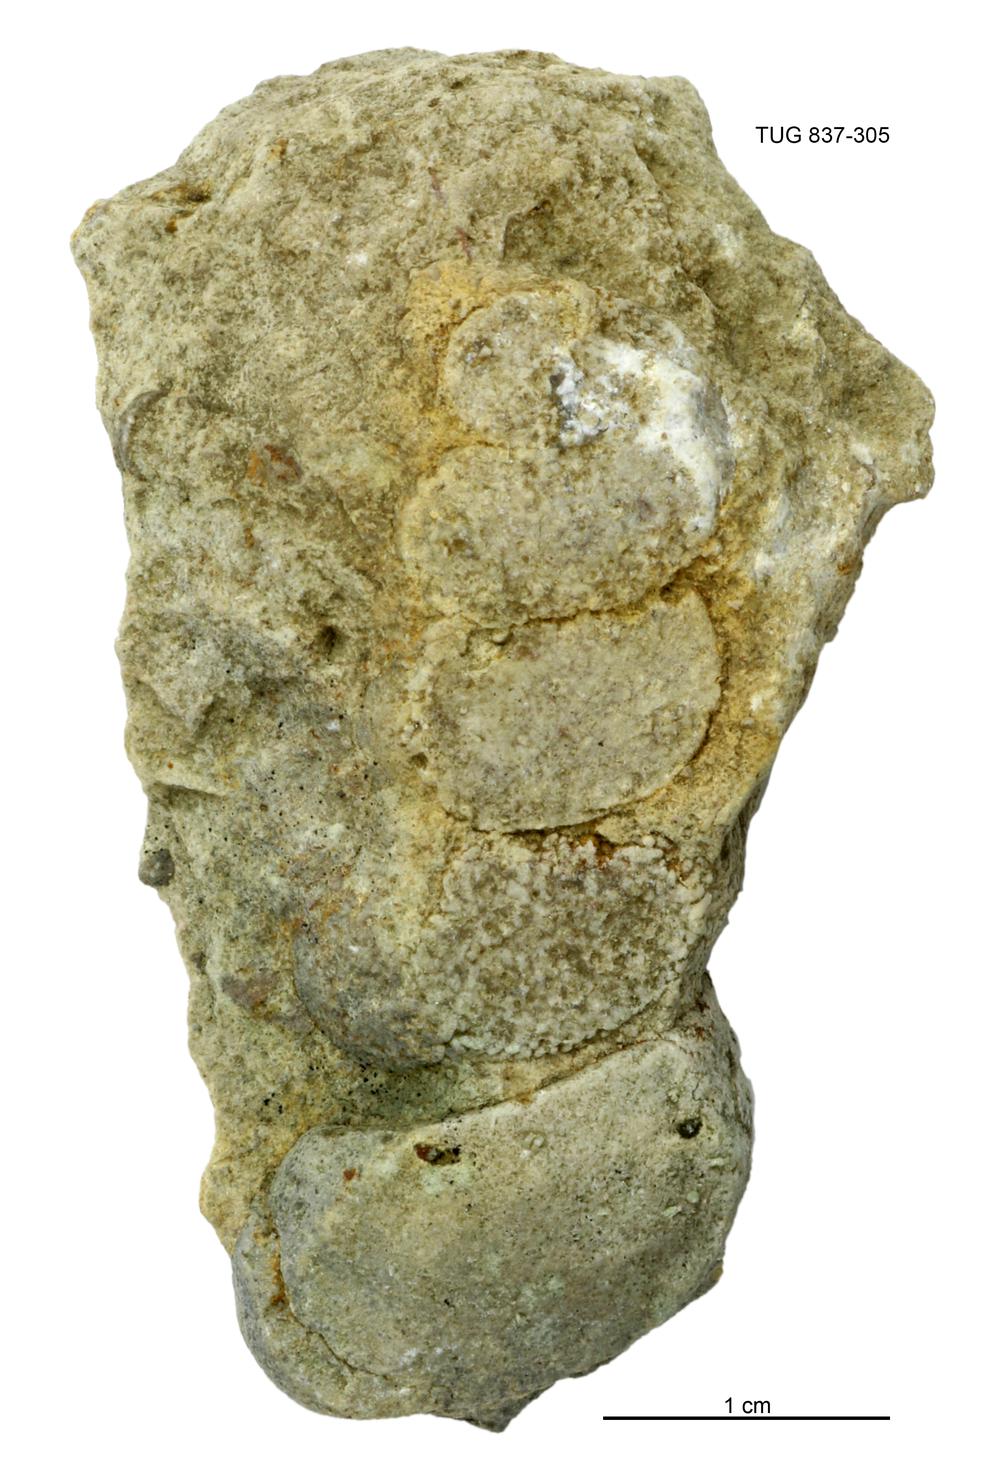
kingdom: Animalia
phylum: Mollusca
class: Gastropoda
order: Pleurotomariida
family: Murchisoniidae
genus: Murchisonia
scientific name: Murchisonia scrobiculata
